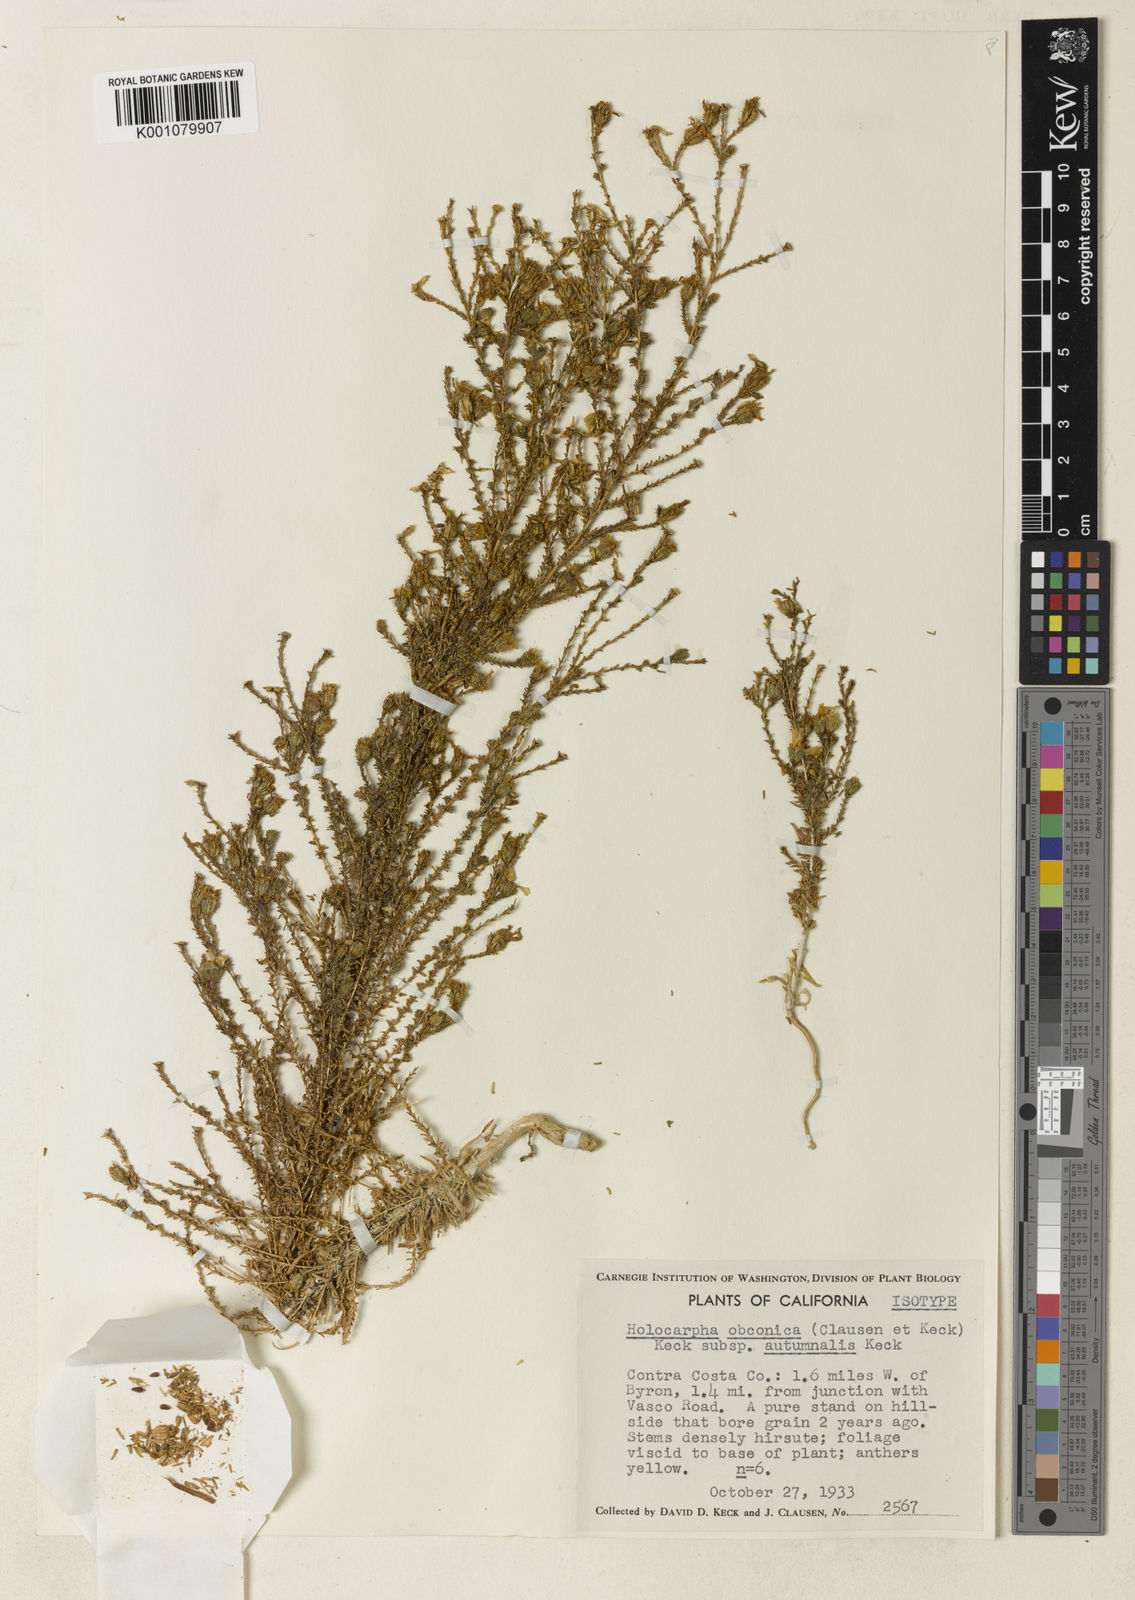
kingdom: Plantae
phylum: Tracheophyta
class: Magnoliopsida
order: Asterales
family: Asteraceae
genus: Holocarpha
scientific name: Holocarpha obconica
